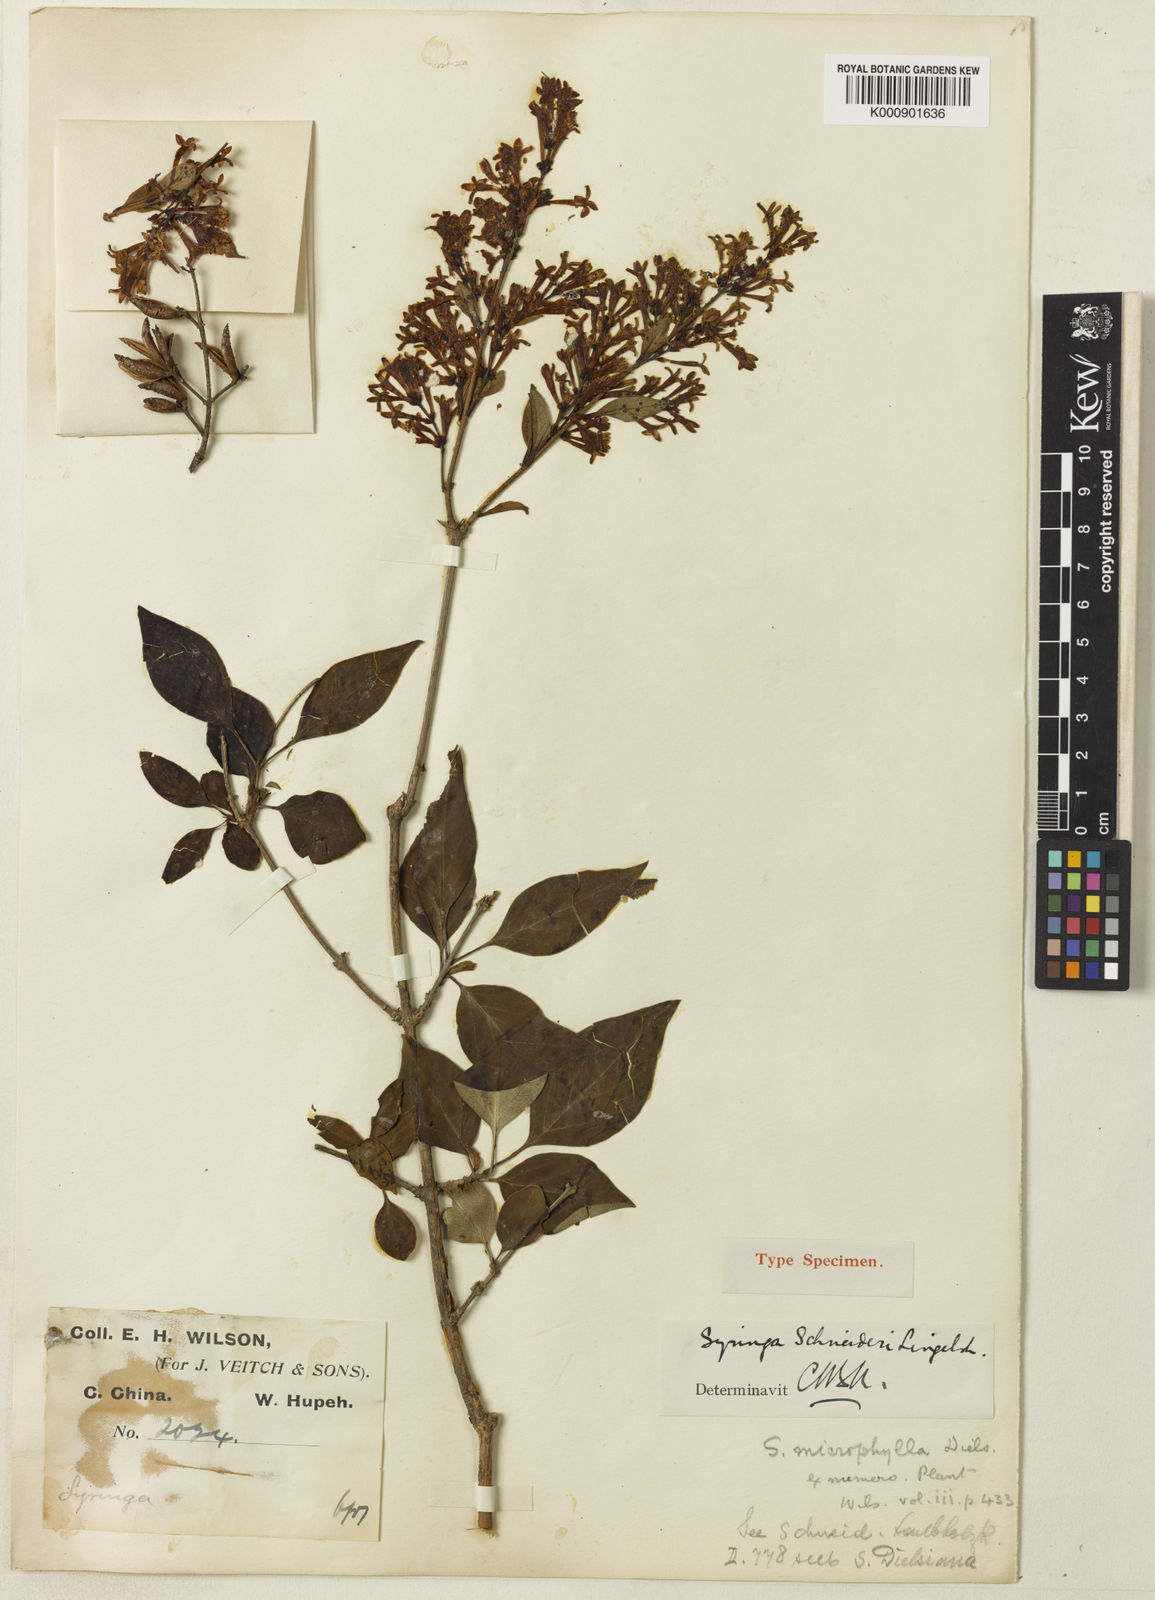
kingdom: Plantae
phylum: Tracheophyta
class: Magnoliopsida
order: Lamiales
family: Oleaceae
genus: Syringa
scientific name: Syringa pubescens
